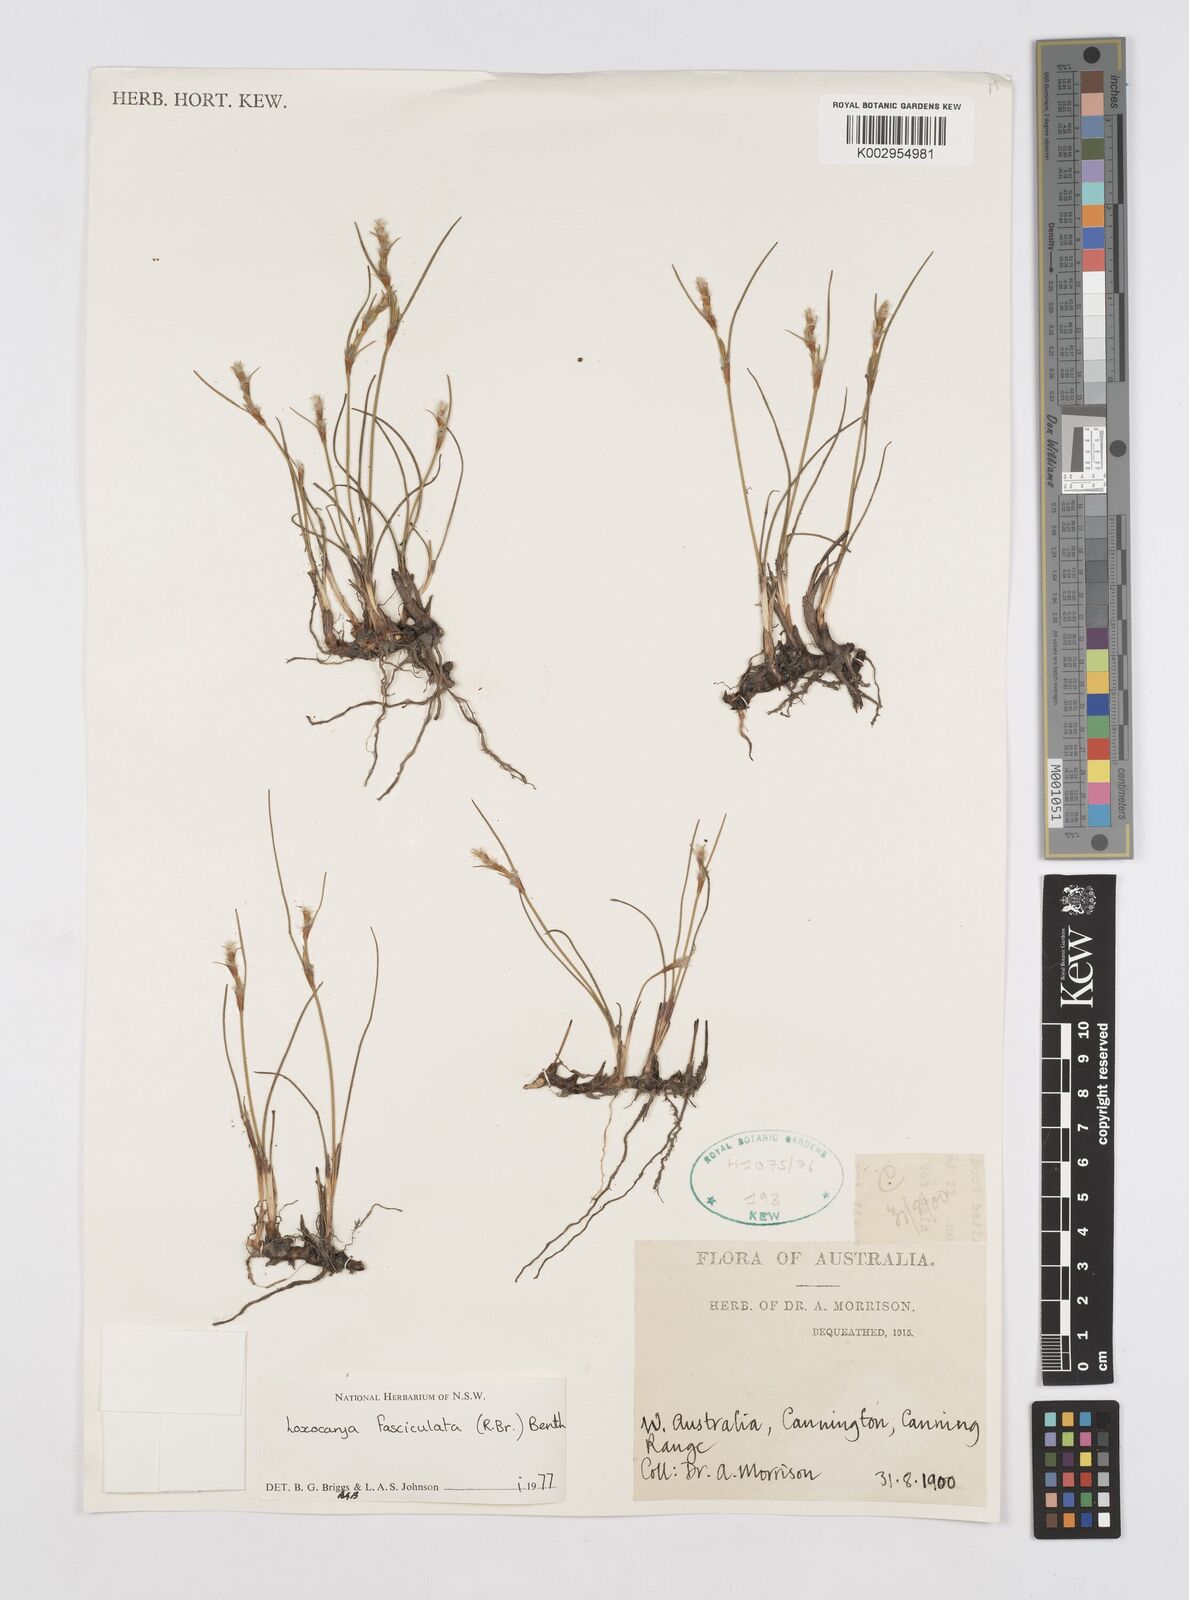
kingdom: Plantae
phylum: Tracheophyta
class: Liliopsida
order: Poales
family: Restionaceae
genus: Desmocladus
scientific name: Desmocladus fasciculatus
